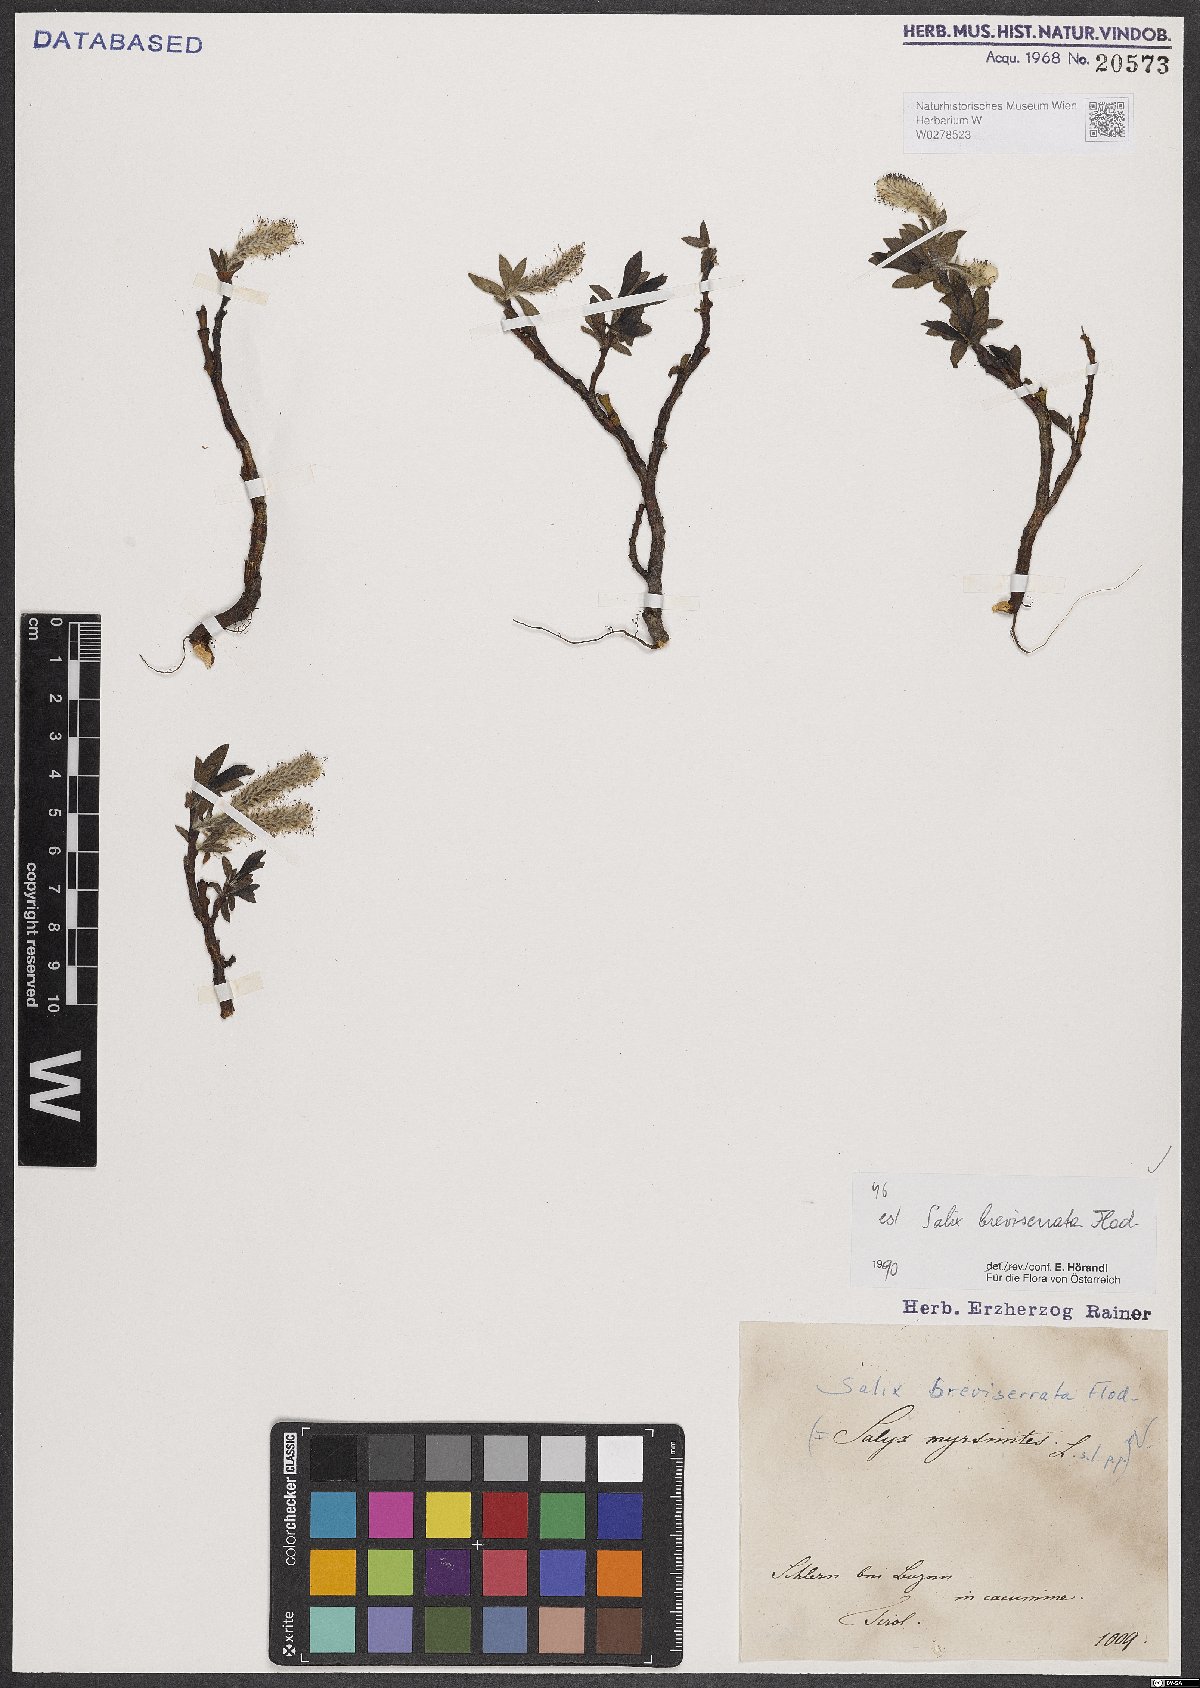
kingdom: Plantae
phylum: Tracheophyta
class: Magnoliopsida
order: Malpighiales
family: Salicaceae
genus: Salix
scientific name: Salix breviserrata
